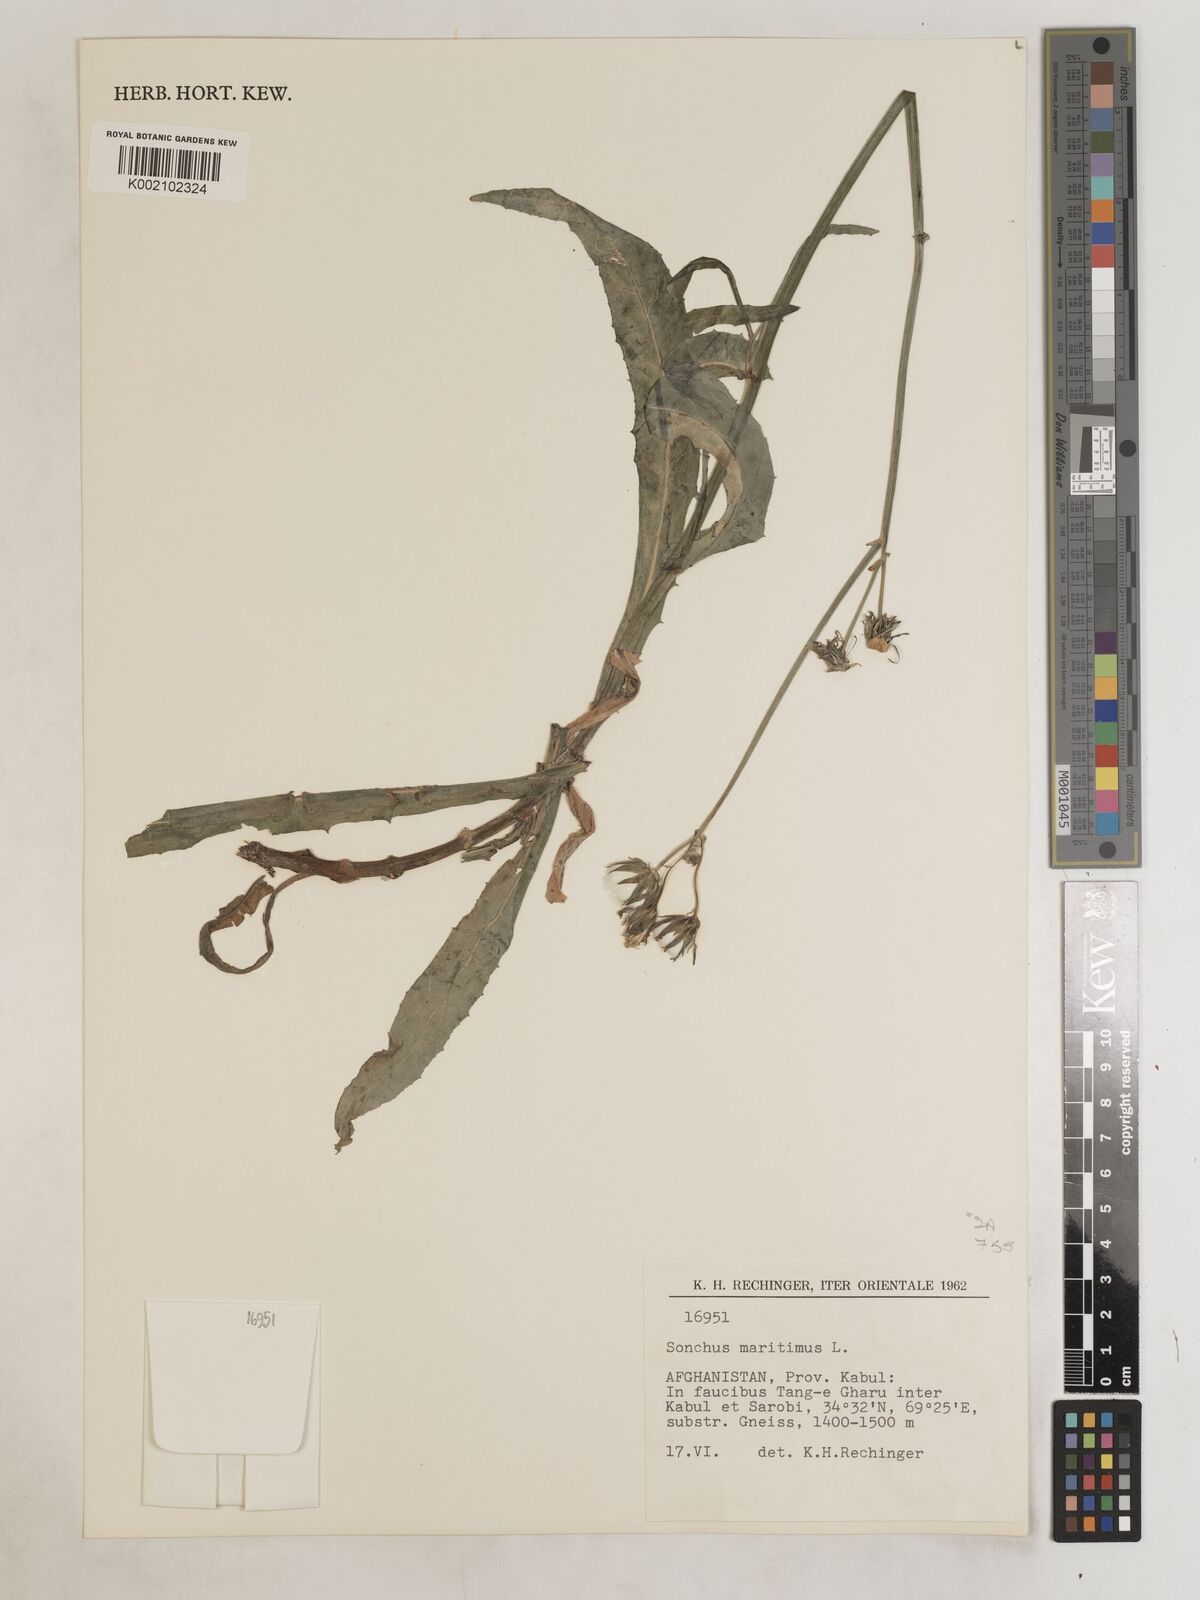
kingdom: Plantae
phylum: Tracheophyta
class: Magnoliopsida
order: Asterales
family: Asteraceae
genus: Sonchus
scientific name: Sonchus maritimus
